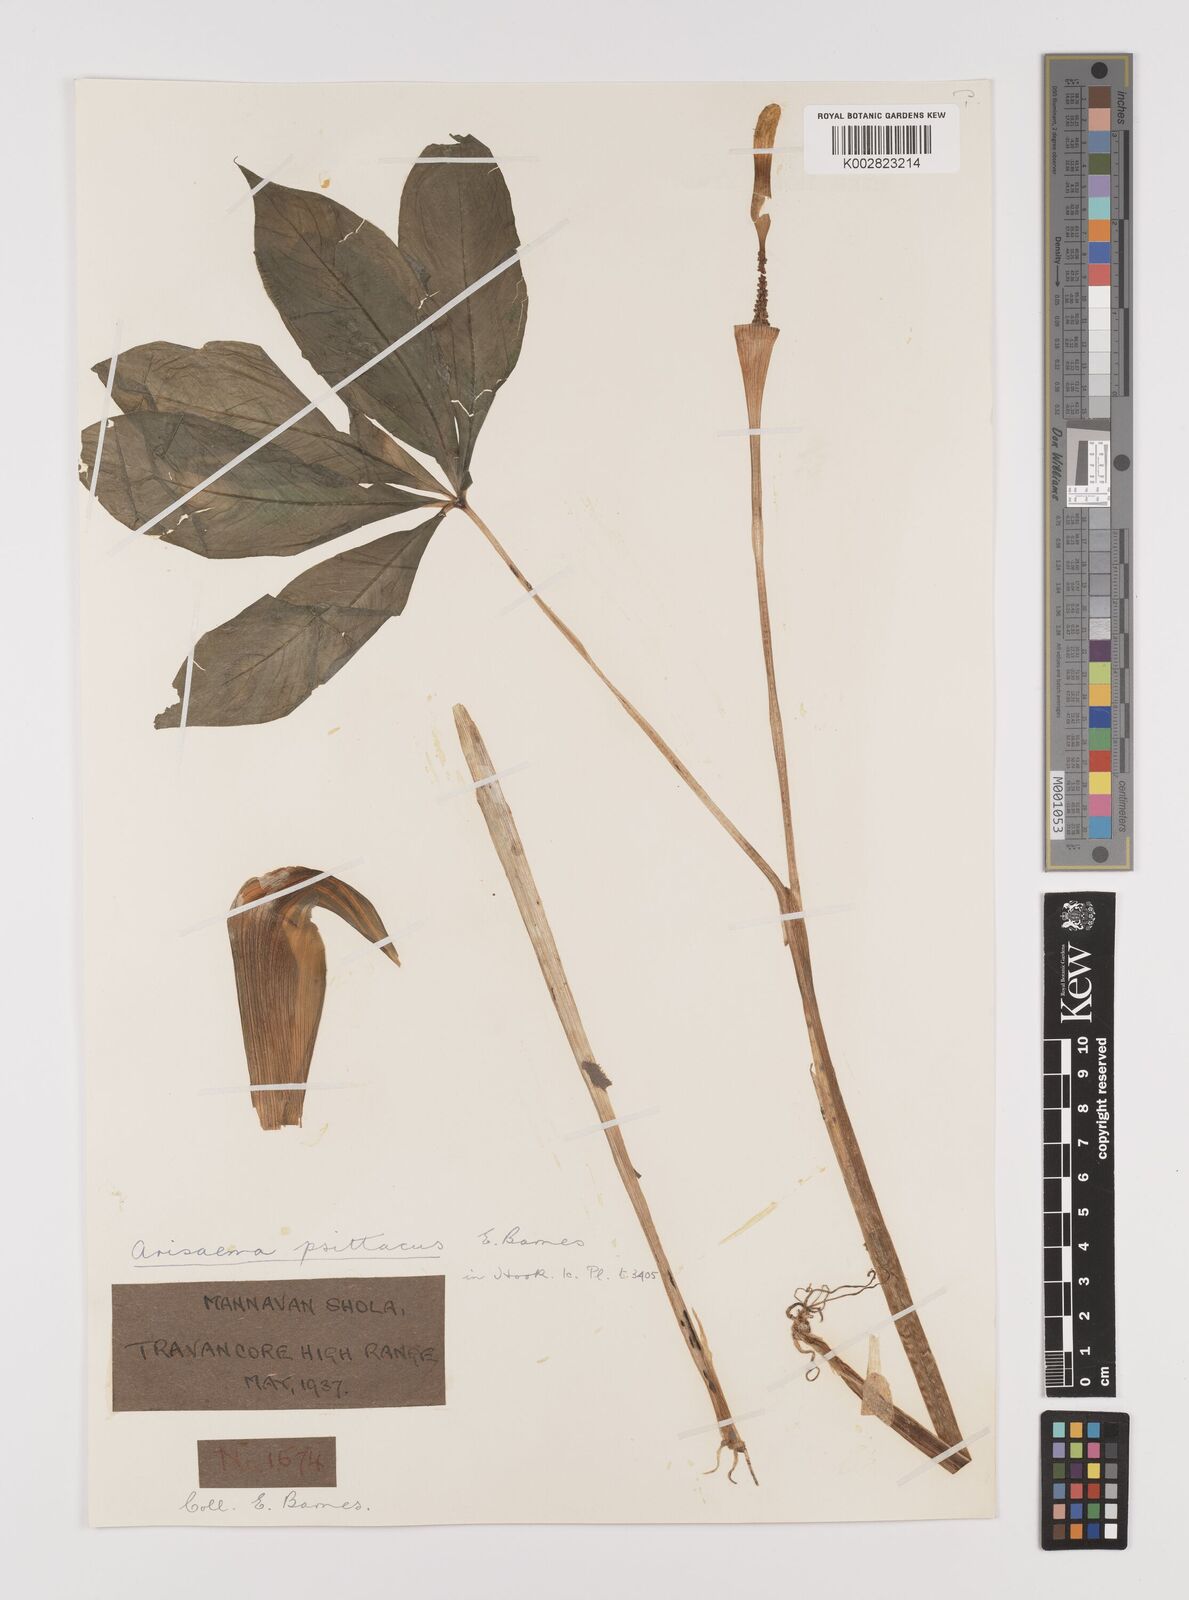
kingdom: Plantae
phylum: Tracheophyta
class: Liliopsida
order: Alismatales
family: Araceae
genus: Arisaema
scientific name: Arisaema psittacus
